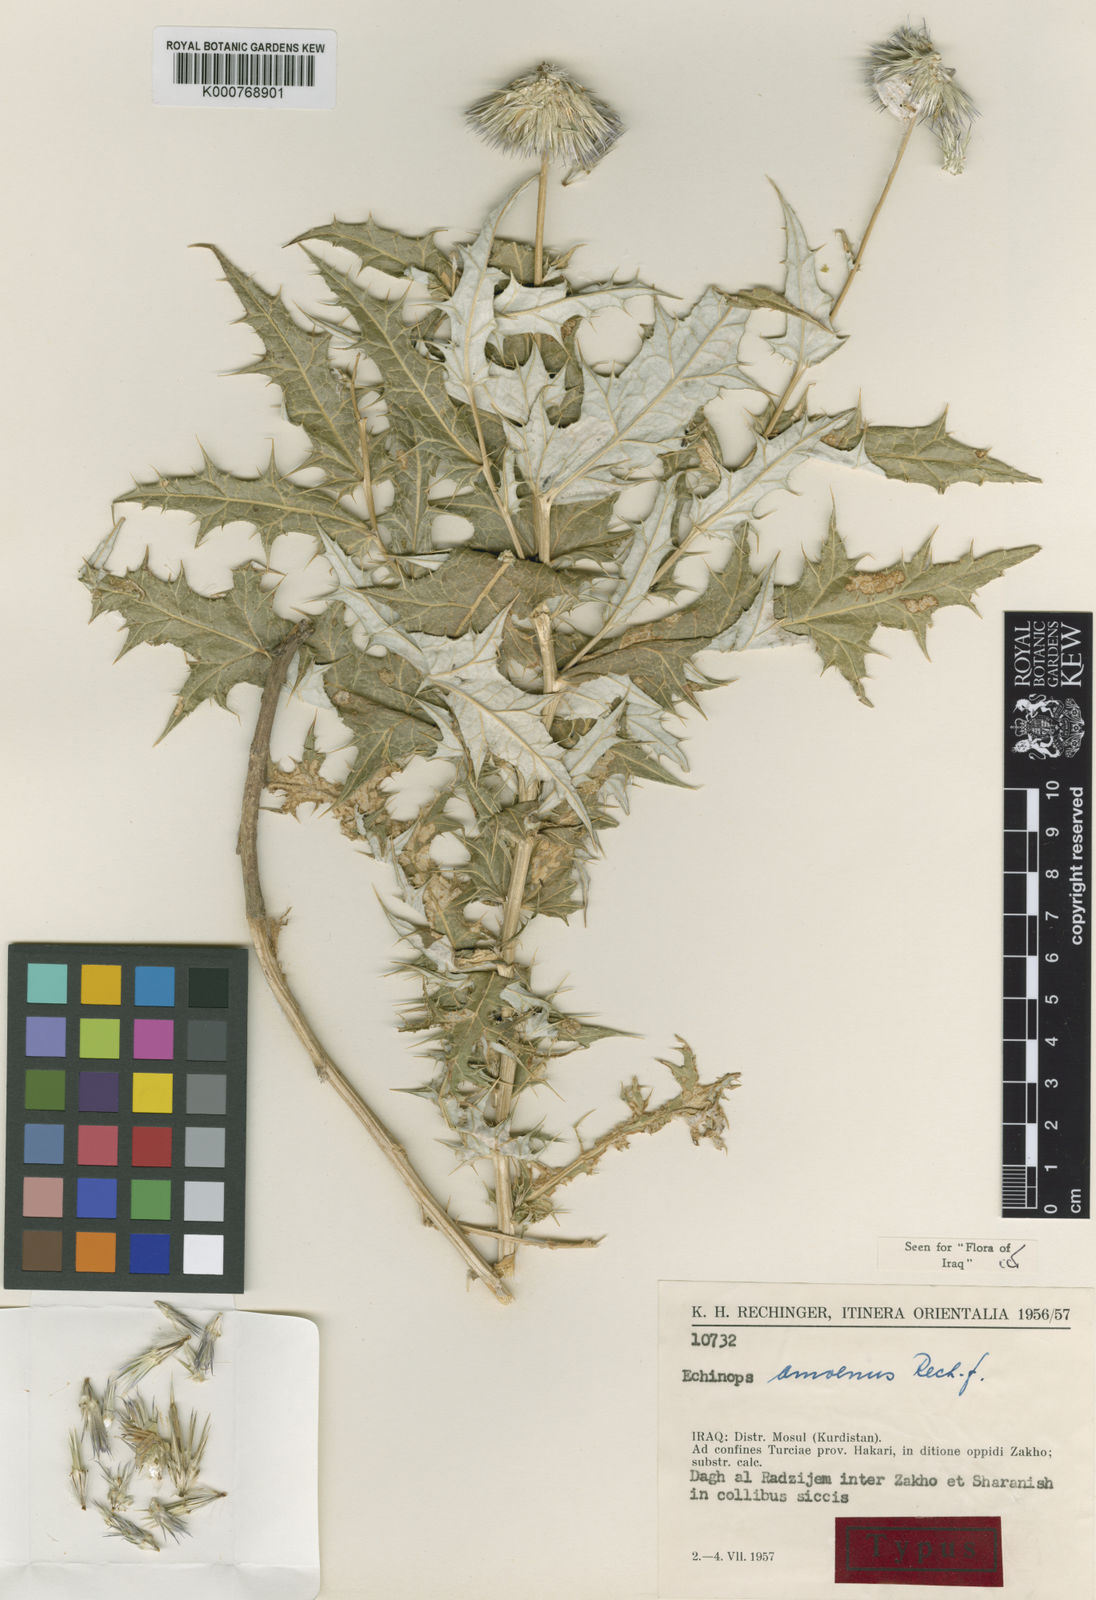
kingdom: Plantae
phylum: Tracheophyta
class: Magnoliopsida
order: Asterales
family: Asteraceae
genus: Echinops
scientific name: Echinops amoenus
